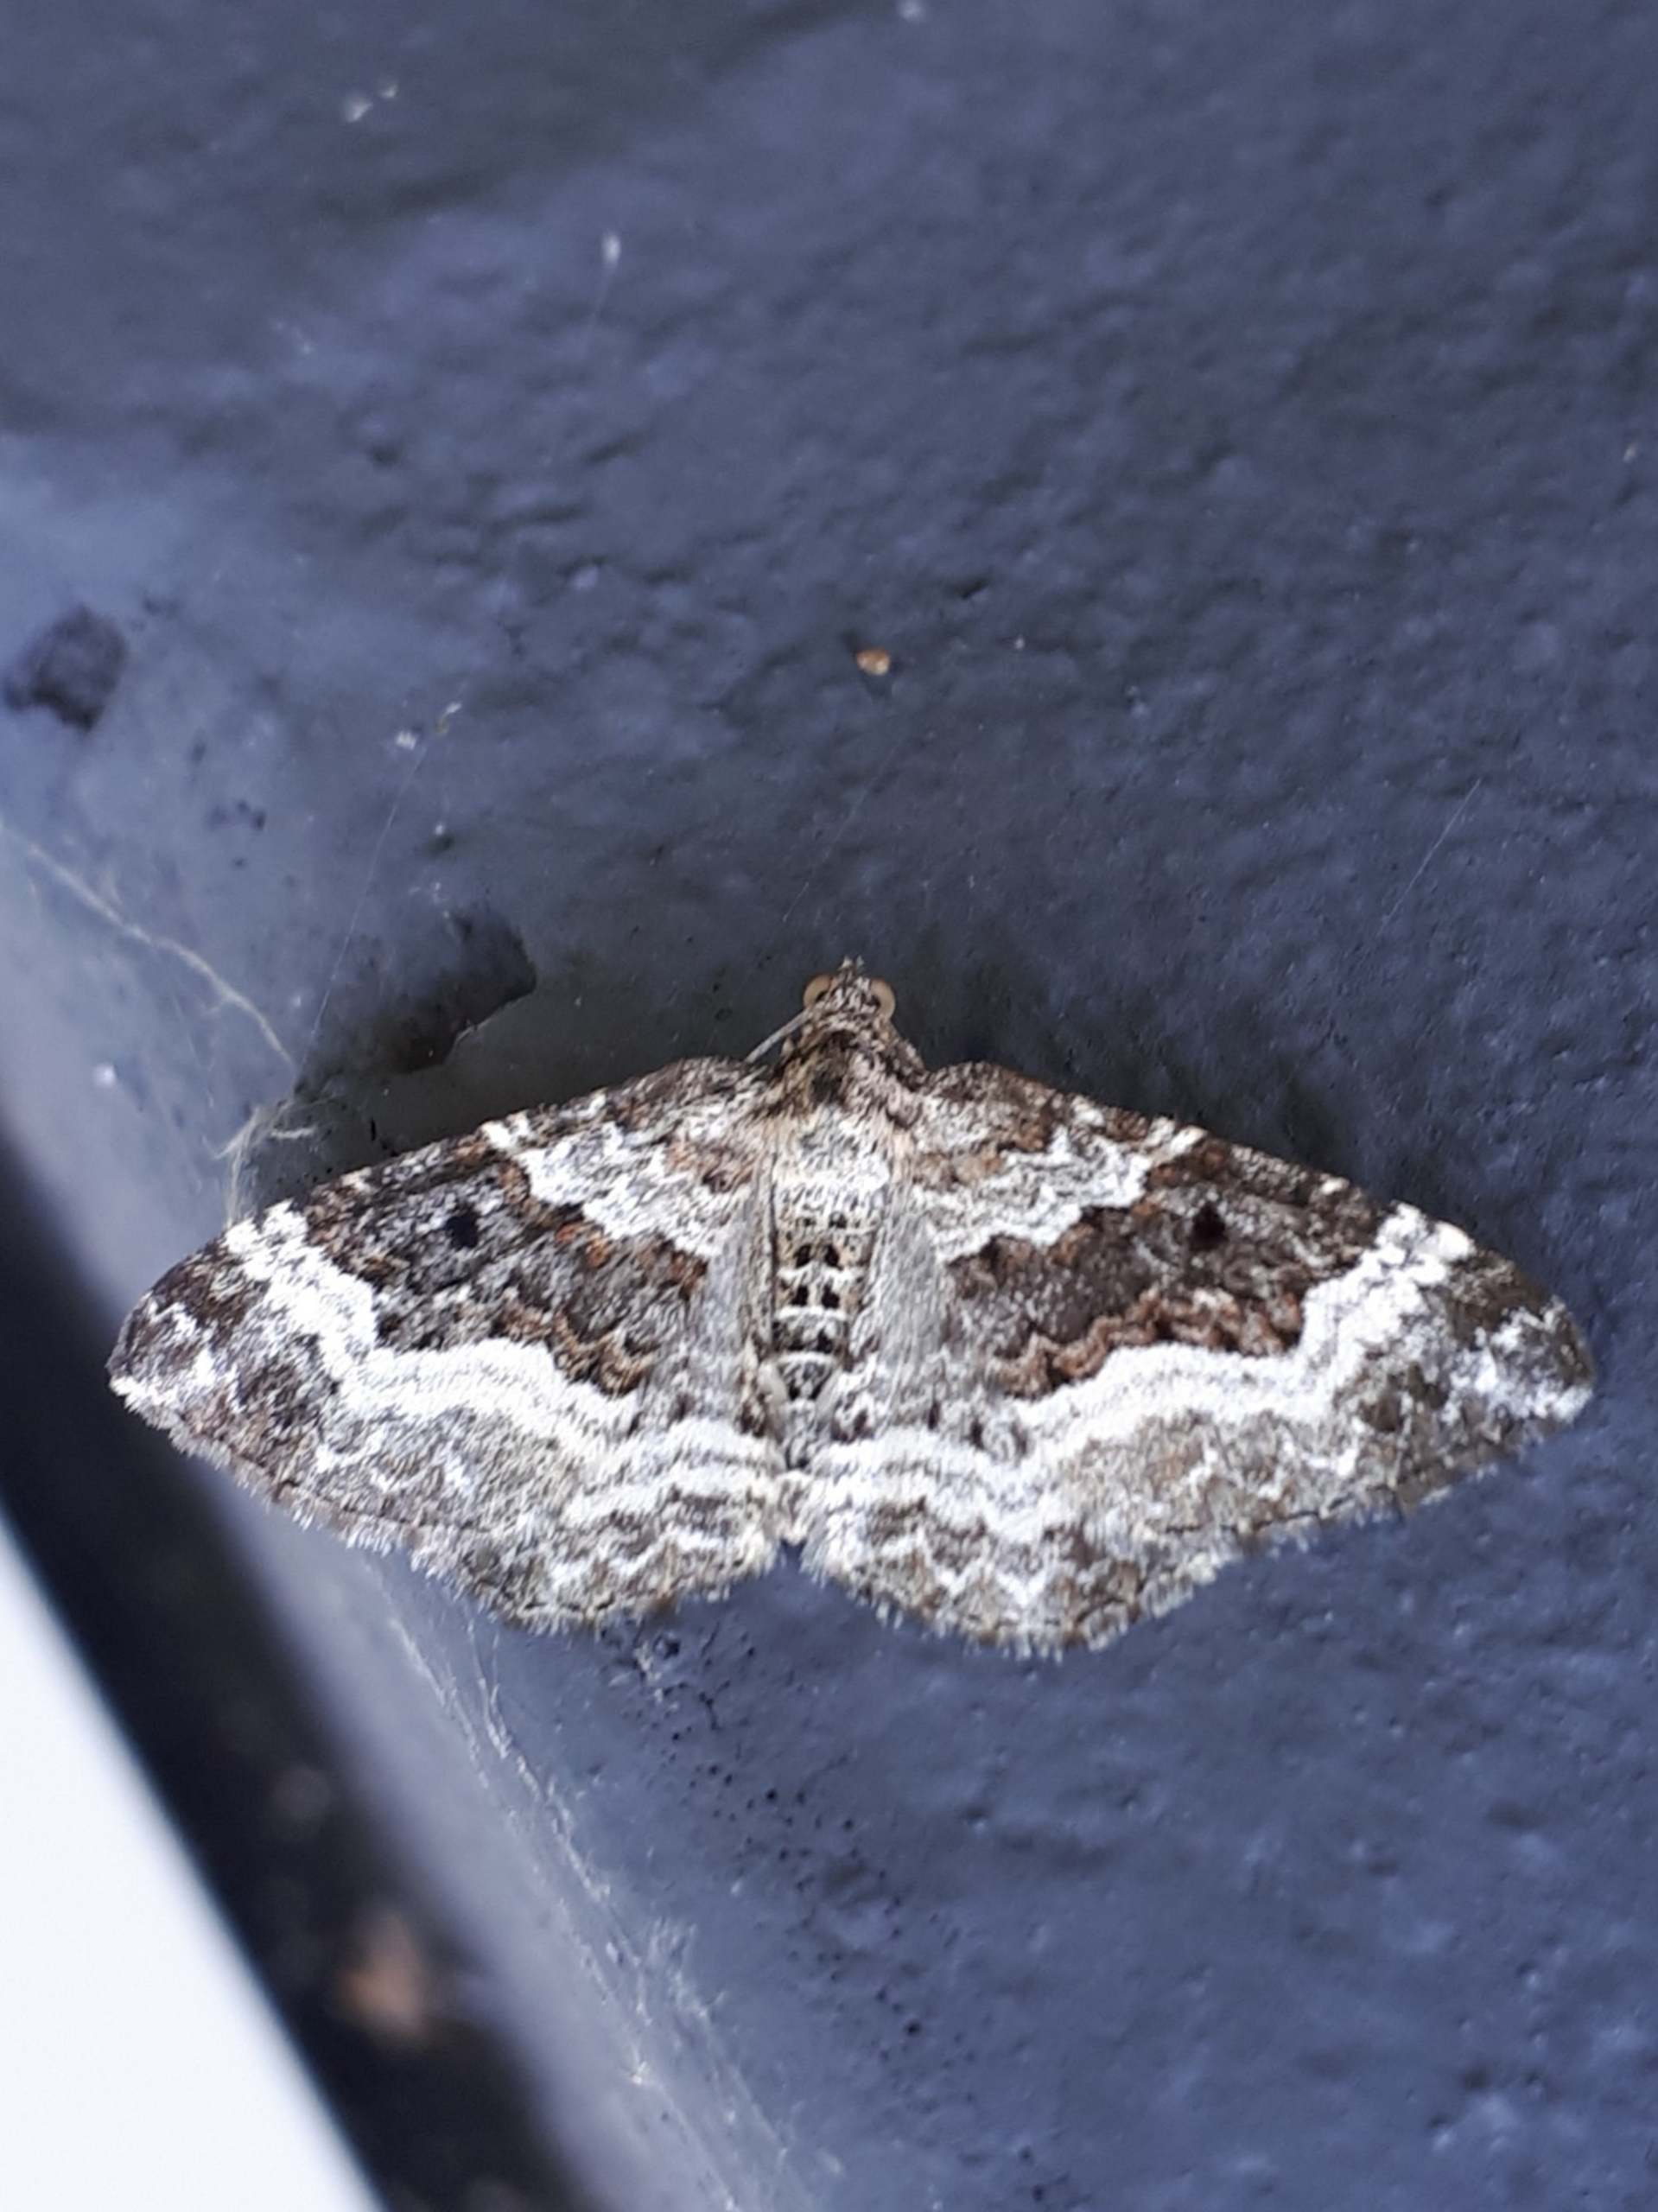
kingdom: Animalia
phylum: Arthropoda
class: Insecta
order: Lepidoptera
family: Geometridae
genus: Epirrhoe
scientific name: Epirrhoe alternata
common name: Almindelig bladmåler
